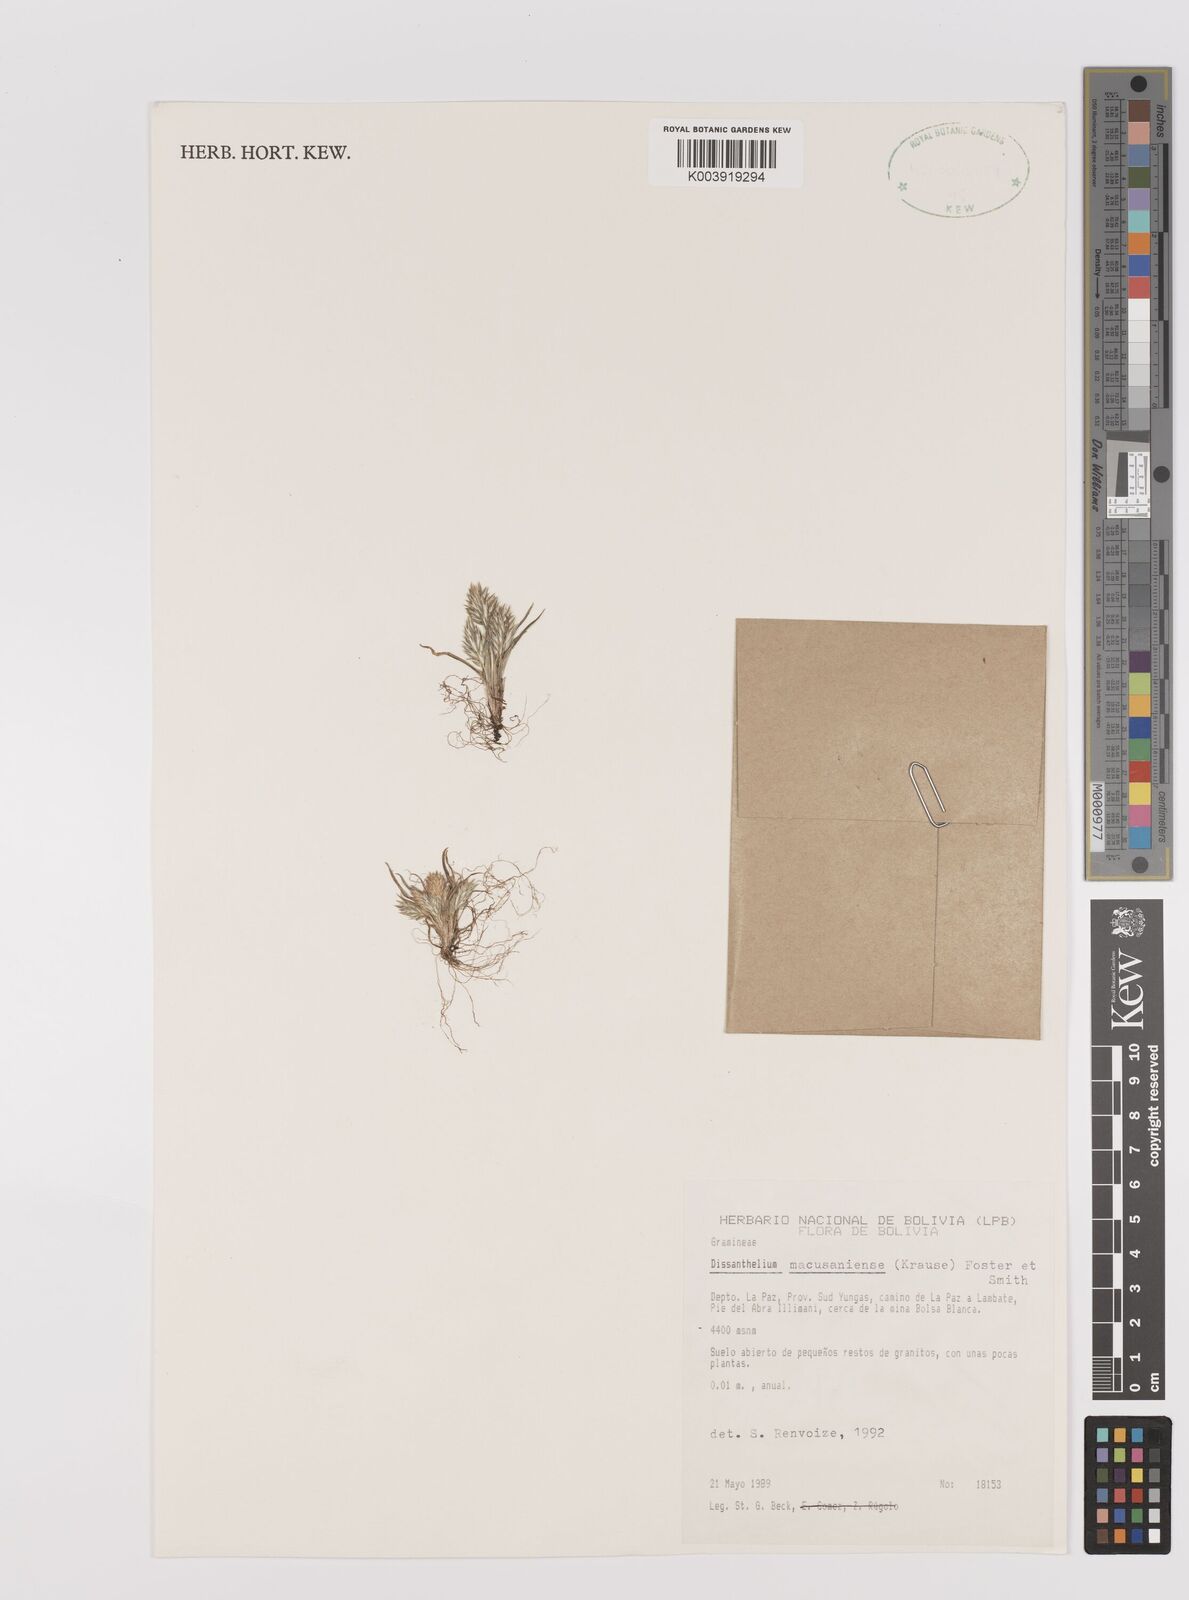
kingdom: Plantae
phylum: Tracheophyta
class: Liliopsida
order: Poales
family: Poaceae
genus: Poa
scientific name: Poa macusaniensis
